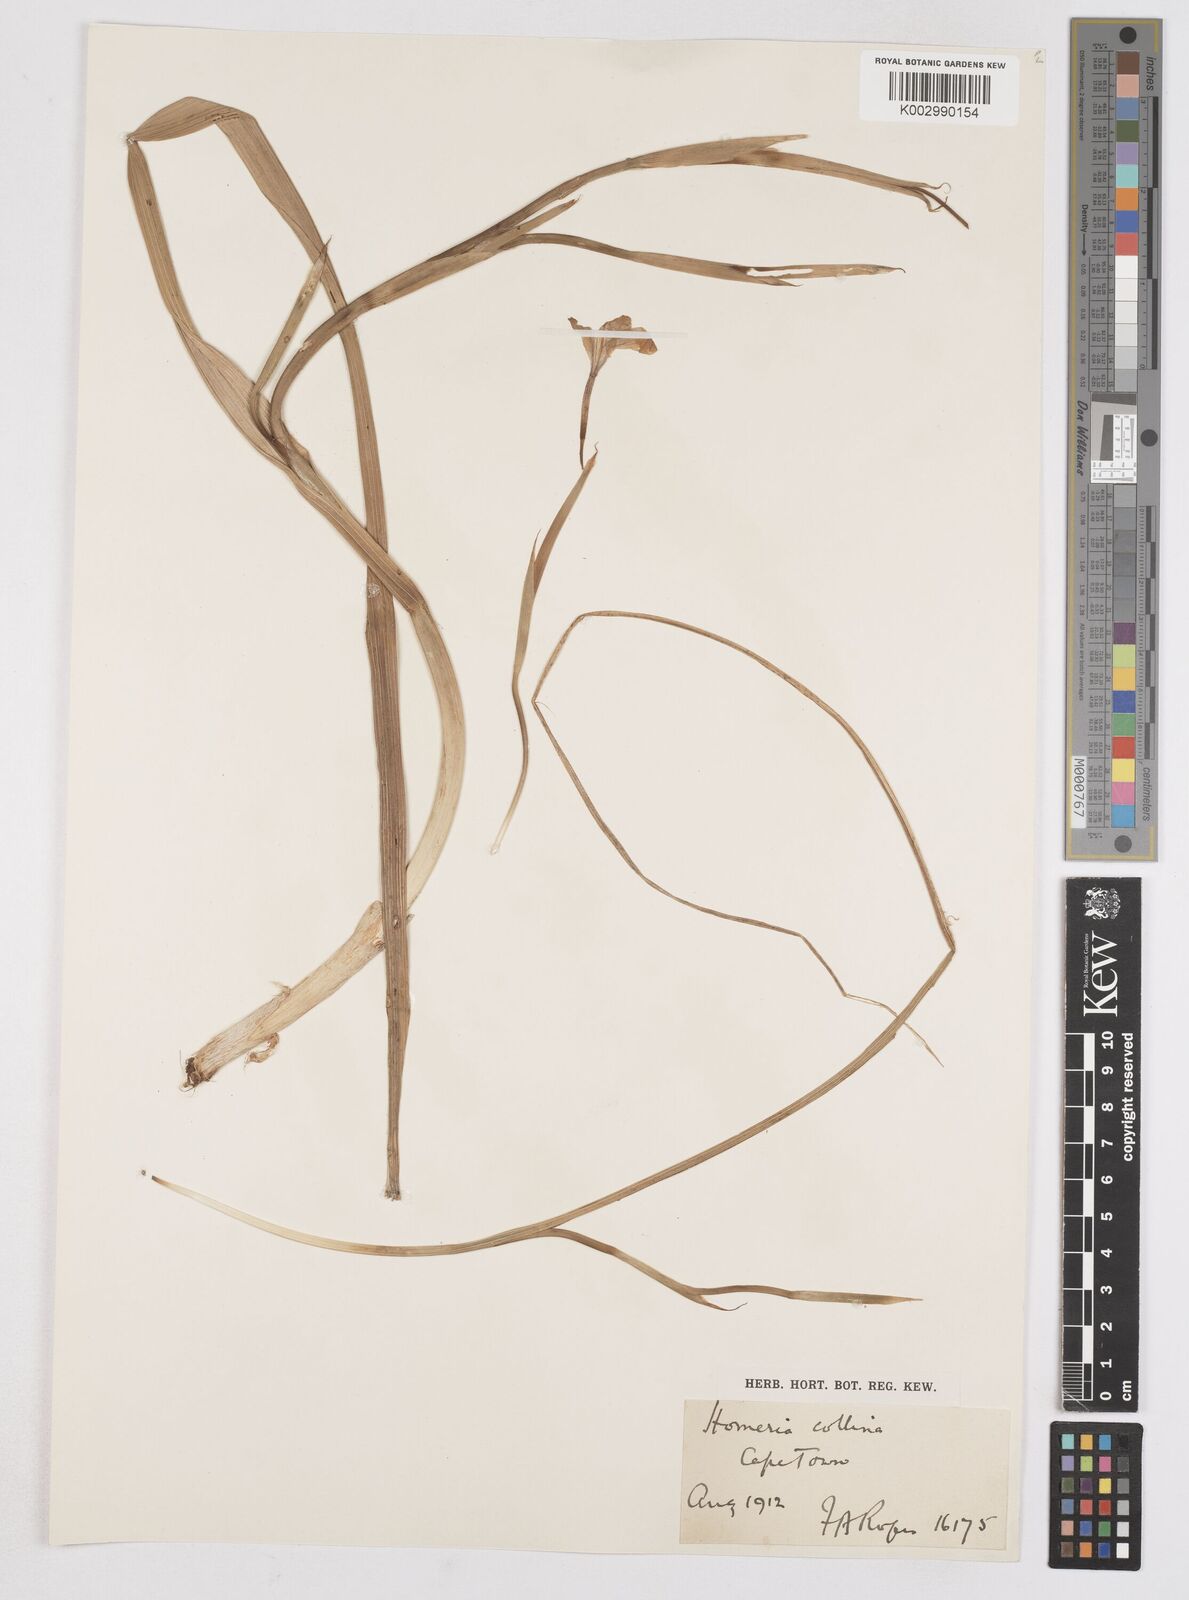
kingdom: Plantae
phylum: Tracheophyta
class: Liliopsida
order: Asparagales
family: Iridaceae
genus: Moraea
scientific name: Moraea collina
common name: Cape-tulip
